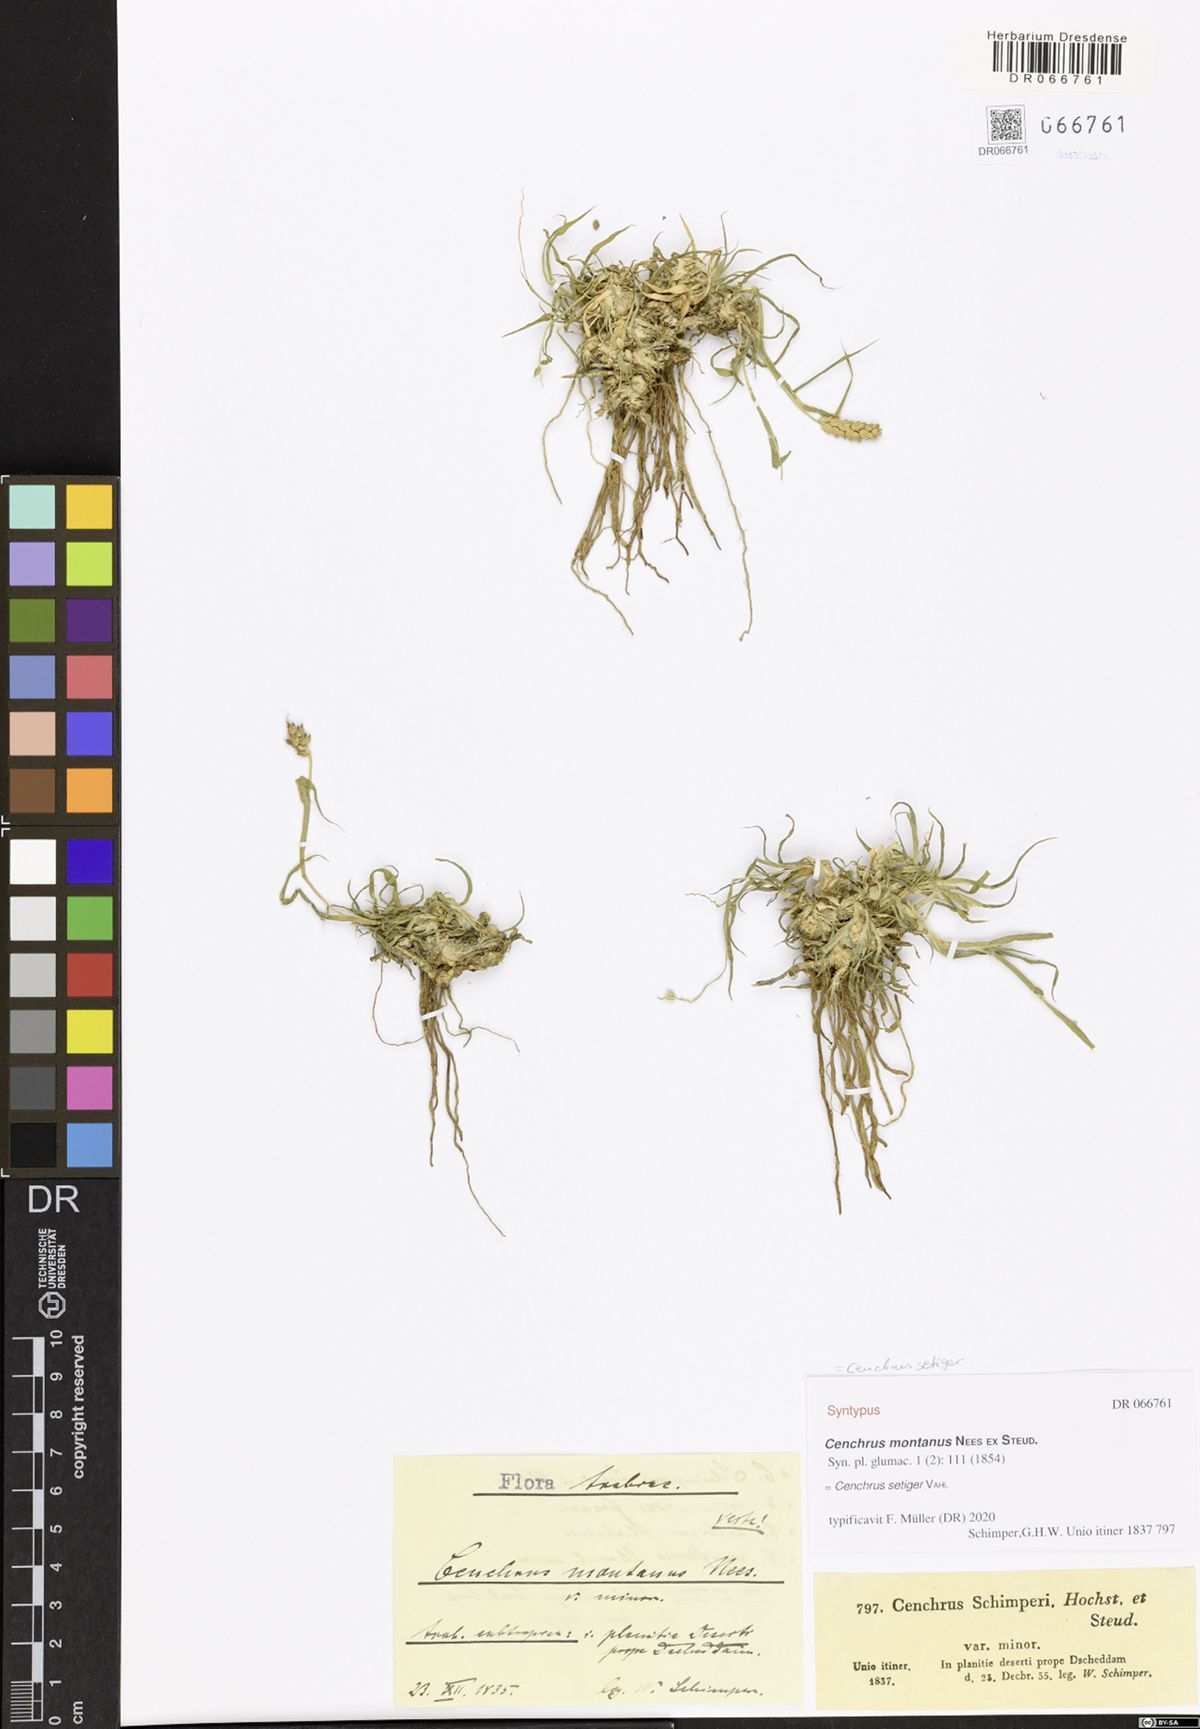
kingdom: Plantae
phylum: Tracheophyta
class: Liliopsida
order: Poales
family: Poaceae
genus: Cenchrus
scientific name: Cenchrus setigerus
